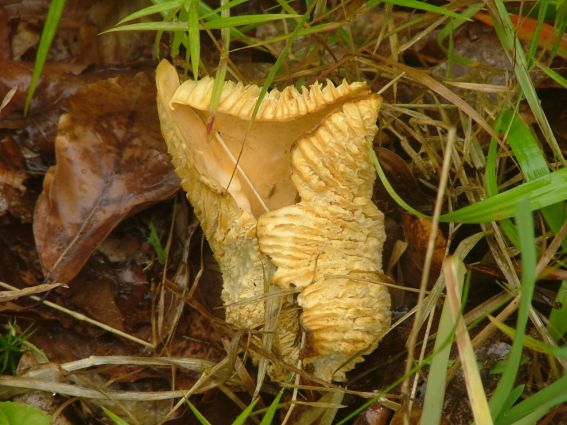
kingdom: Fungi
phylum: Basidiomycota
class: Agaricomycetes
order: Cantharellales
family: Hydnaceae
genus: Cantharellus
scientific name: Cantharellus cibarius
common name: almindelig kantarel
